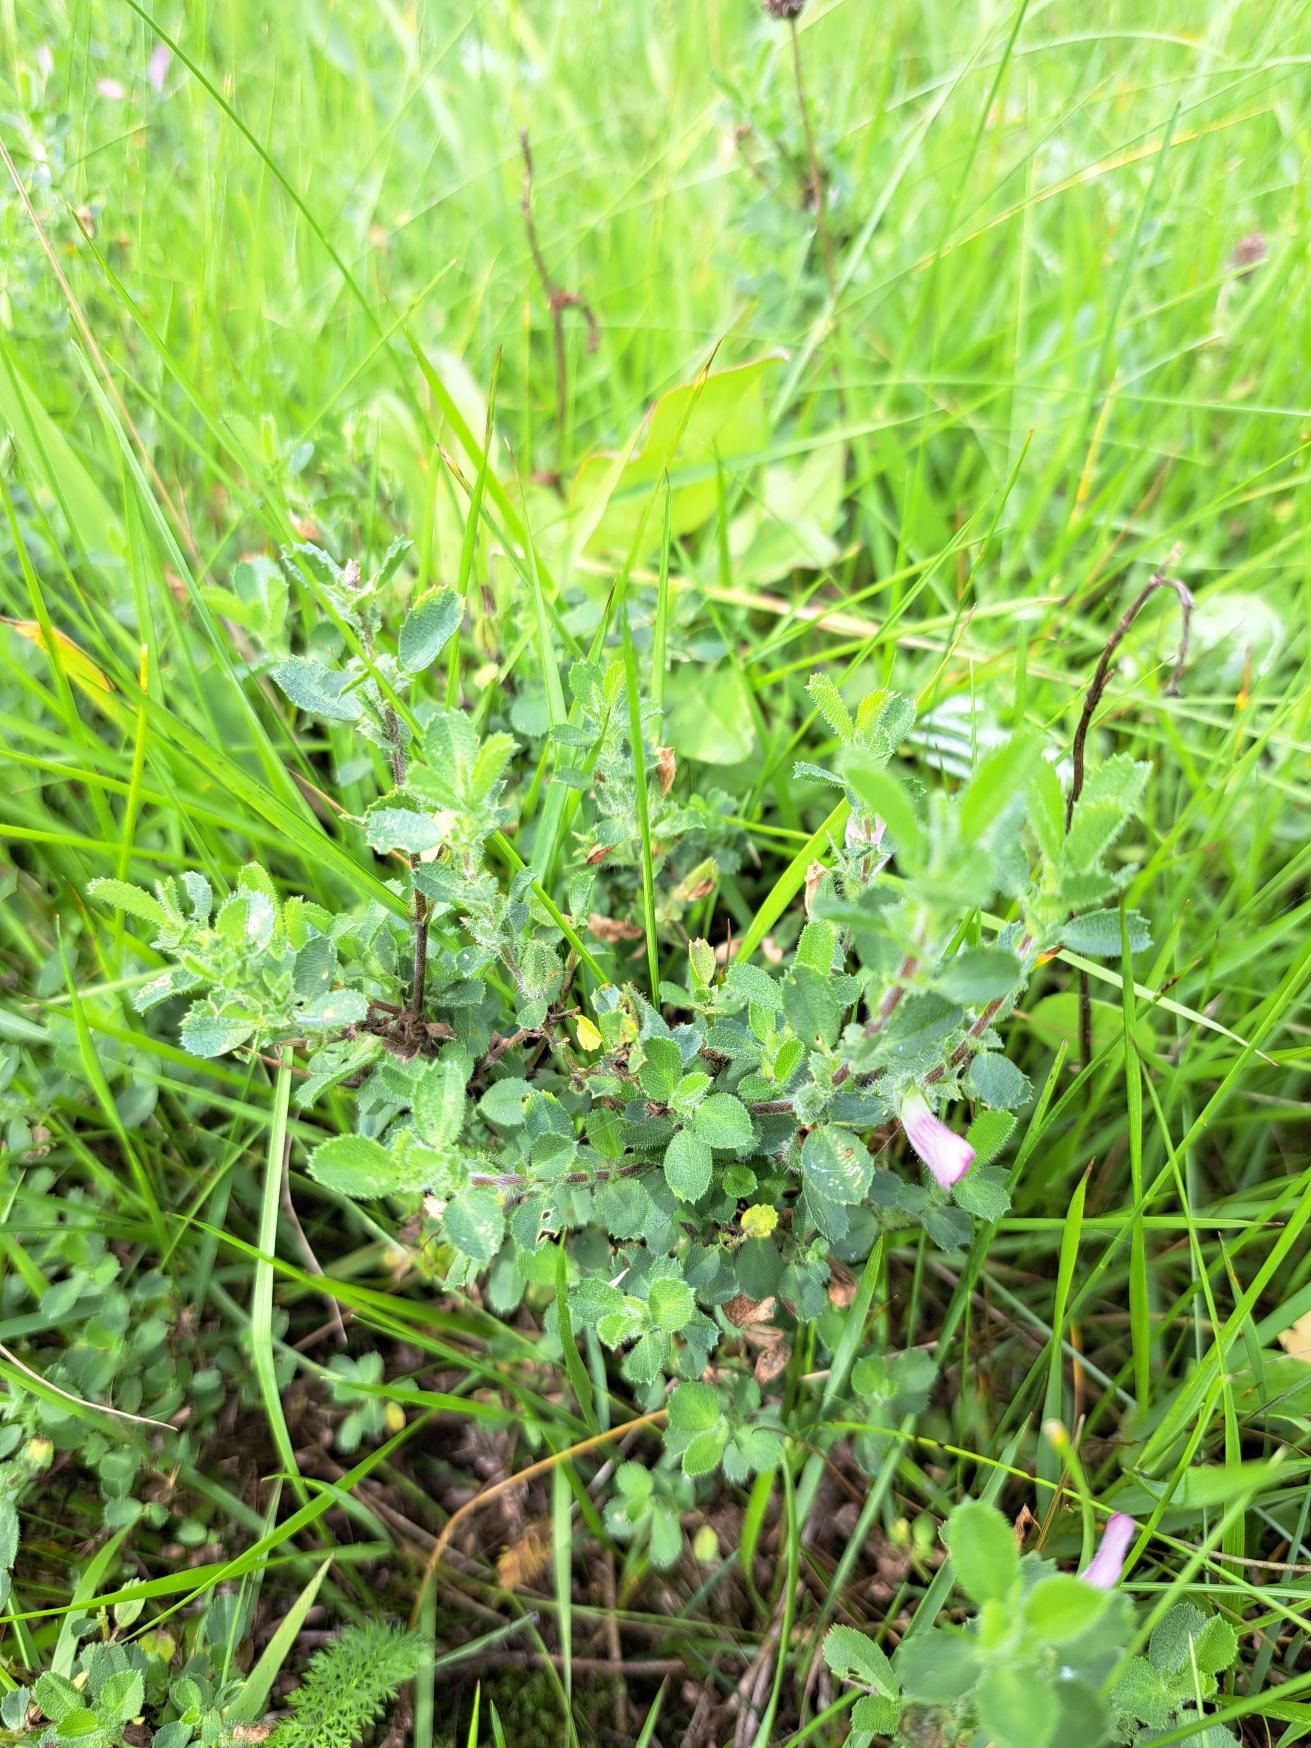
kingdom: Plantae
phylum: Tracheophyta
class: Magnoliopsida
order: Fabales
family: Fabaceae
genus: Ononis
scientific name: Ononis spinosa
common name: Mark-krageklo
